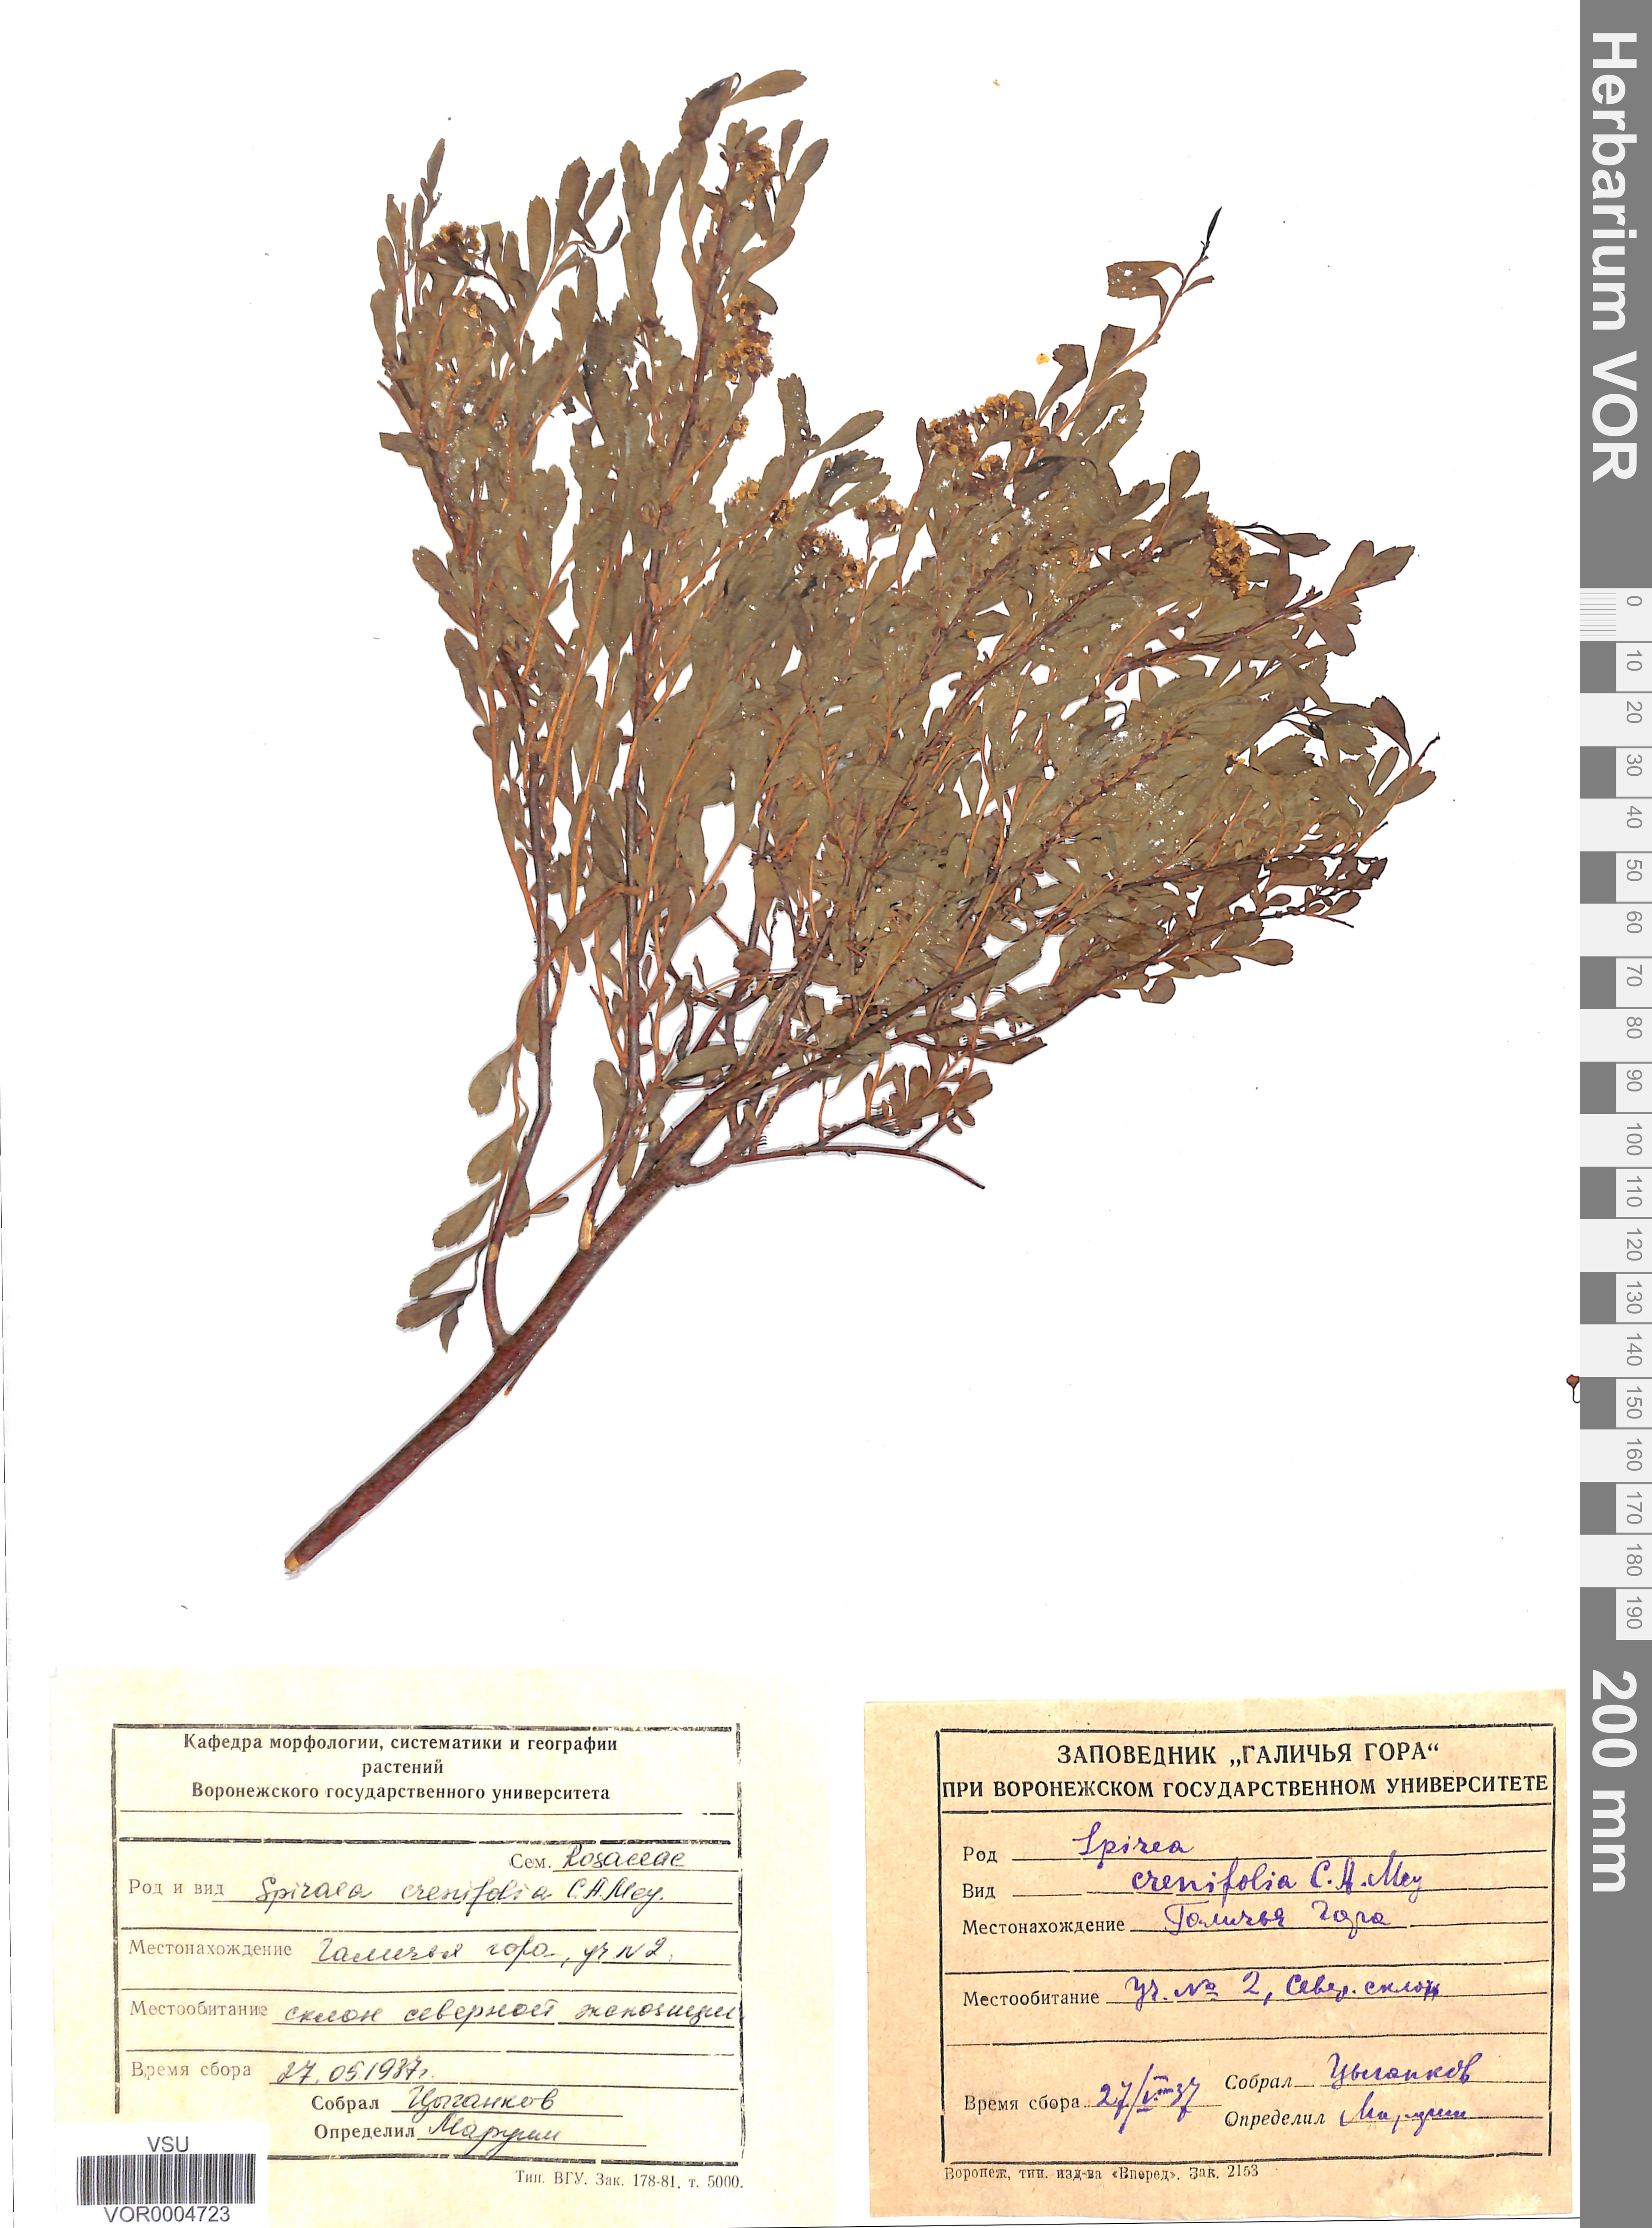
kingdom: Plantae
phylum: Tracheophyta
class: Magnoliopsida
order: Rosales
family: Rosaceae
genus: Spiraea
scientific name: Spiraea crenata
